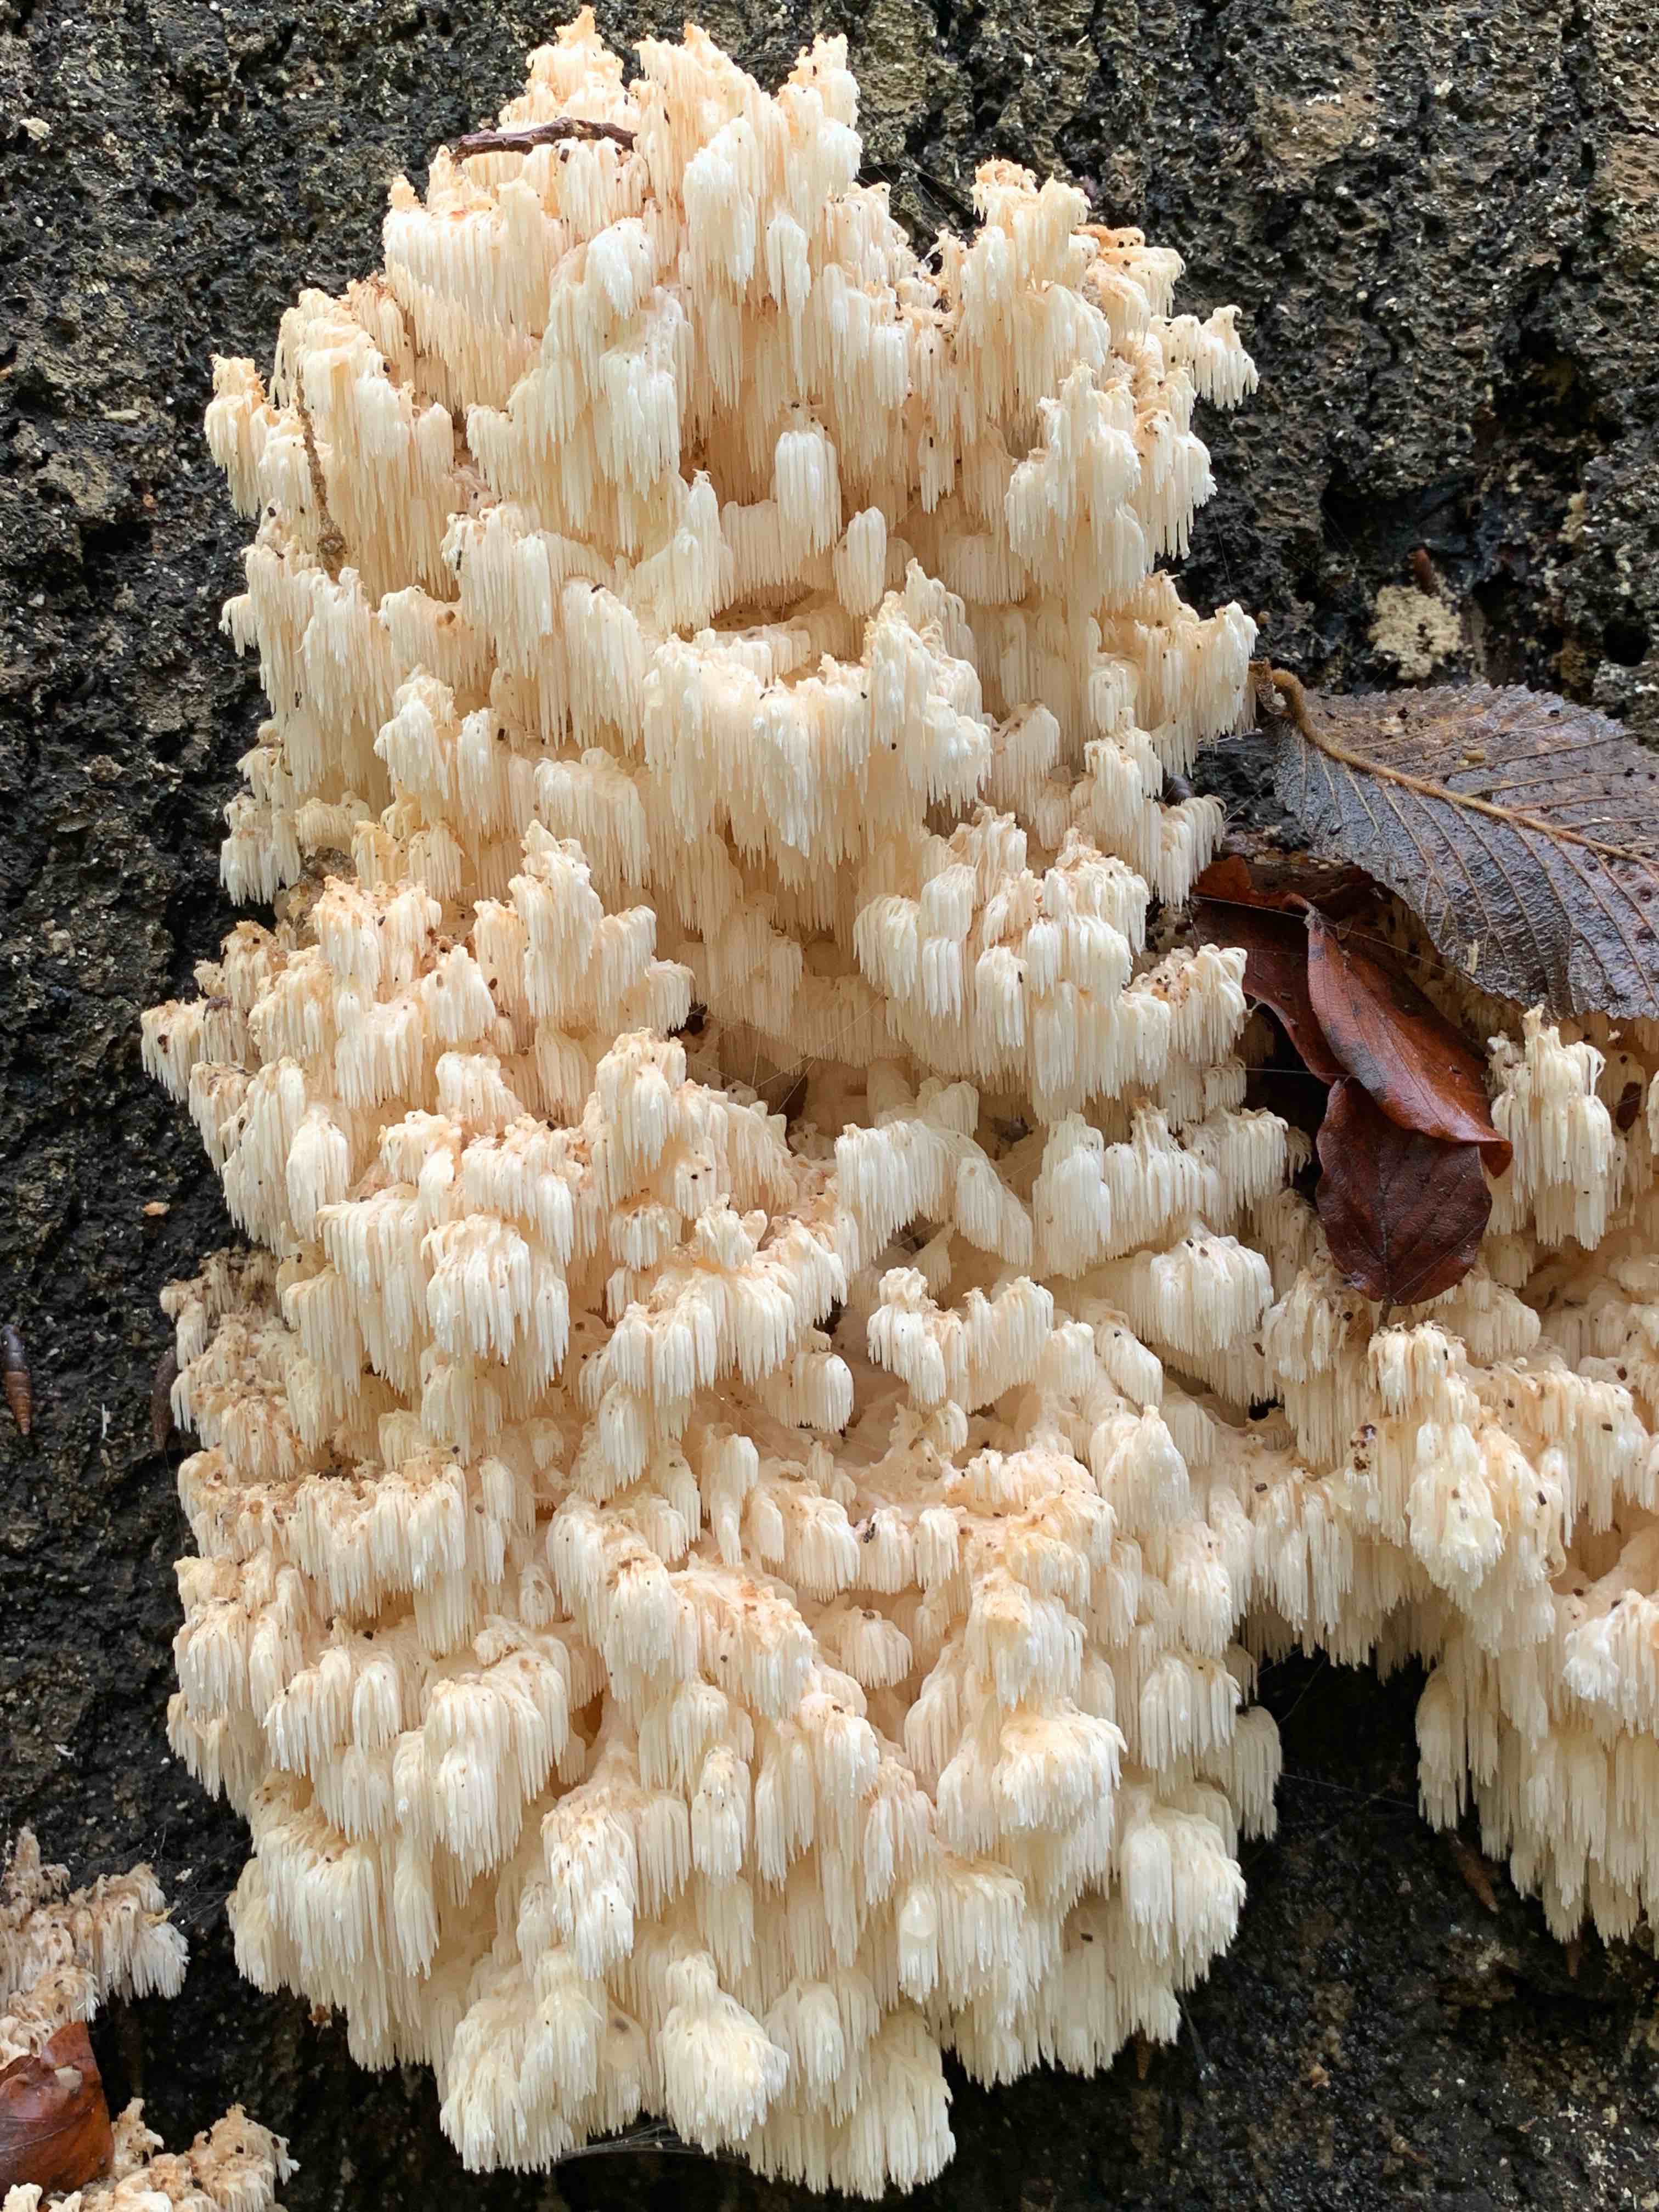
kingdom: Fungi
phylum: Basidiomycota
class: Agaricomycetes
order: Russulales
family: Hericiaceae
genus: Hericium
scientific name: Hericium coralloides
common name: koralpigsvamp
